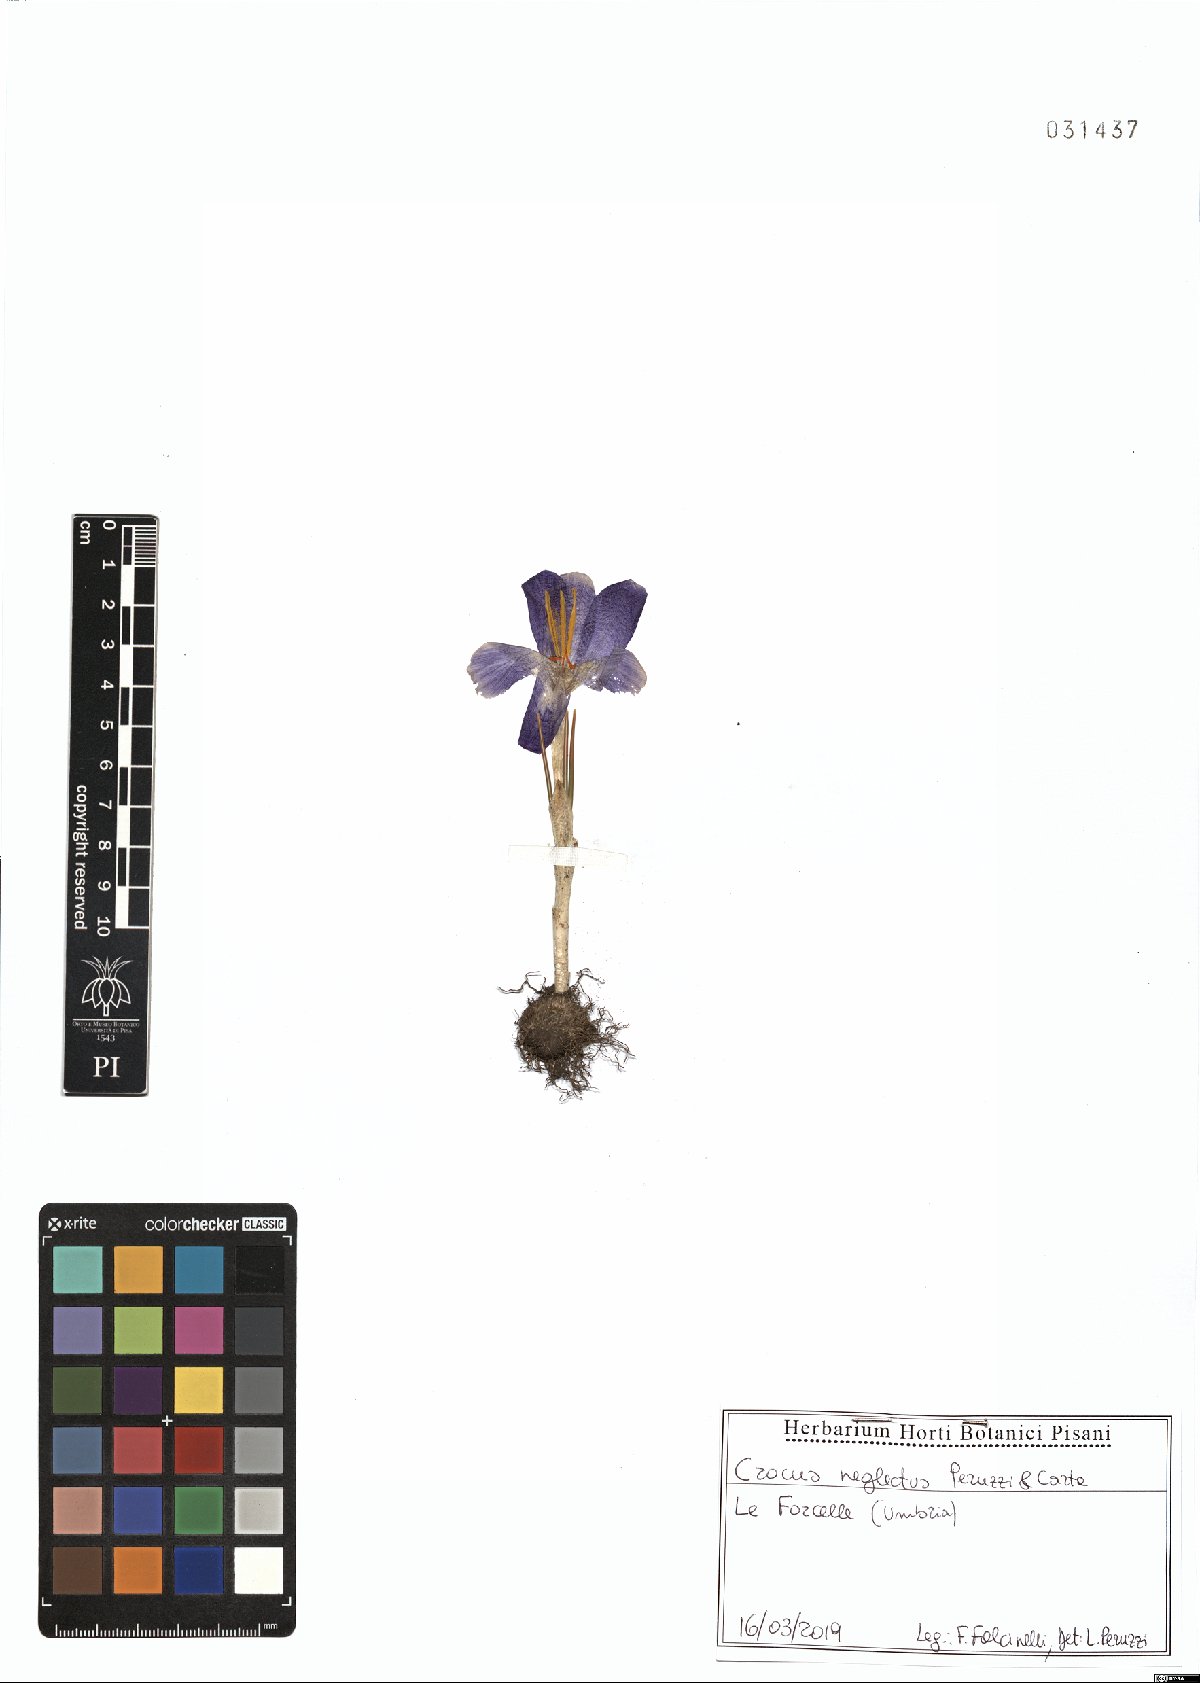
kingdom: Plantae
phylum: Tracheophyta
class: Liliopsida
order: Asparagales
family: Iridaceae
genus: Crocus
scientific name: Crocus neglectus
